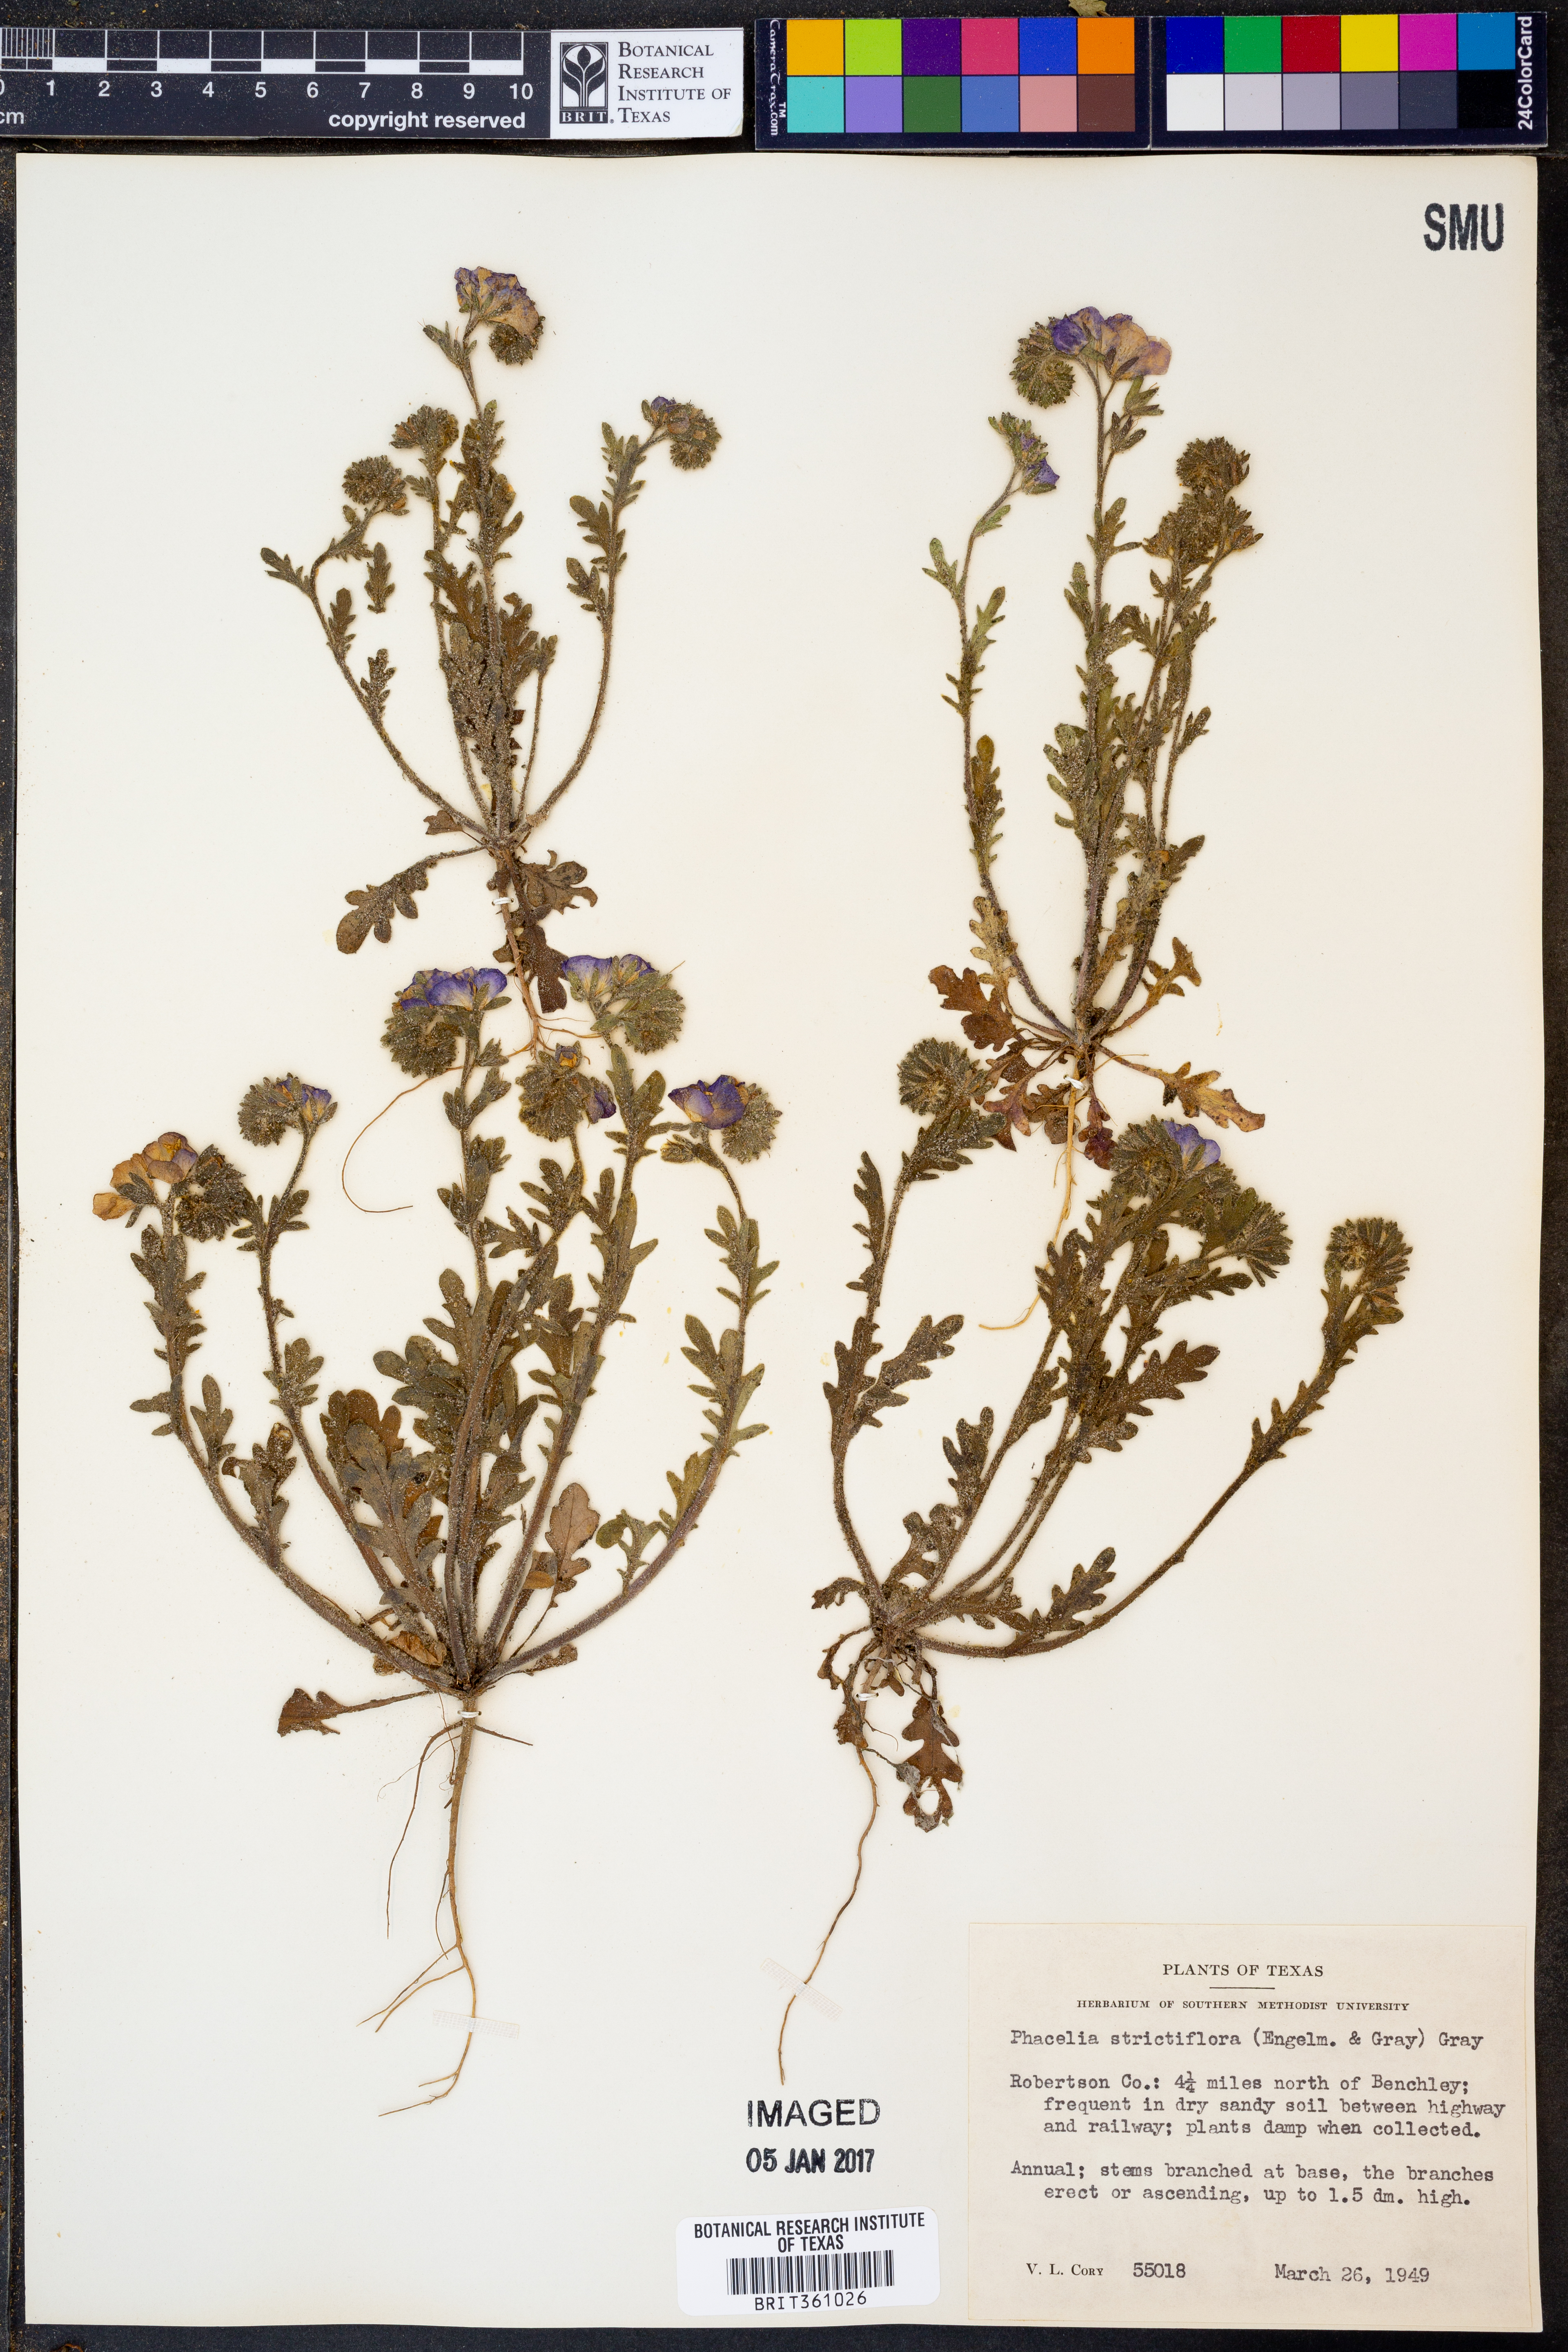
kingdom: Plantae
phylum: Tracheophyta
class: Magnoliopsida
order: Boraginales
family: Hydrophyllaceae
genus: Phacelia
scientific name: Phacelia strictiflora
